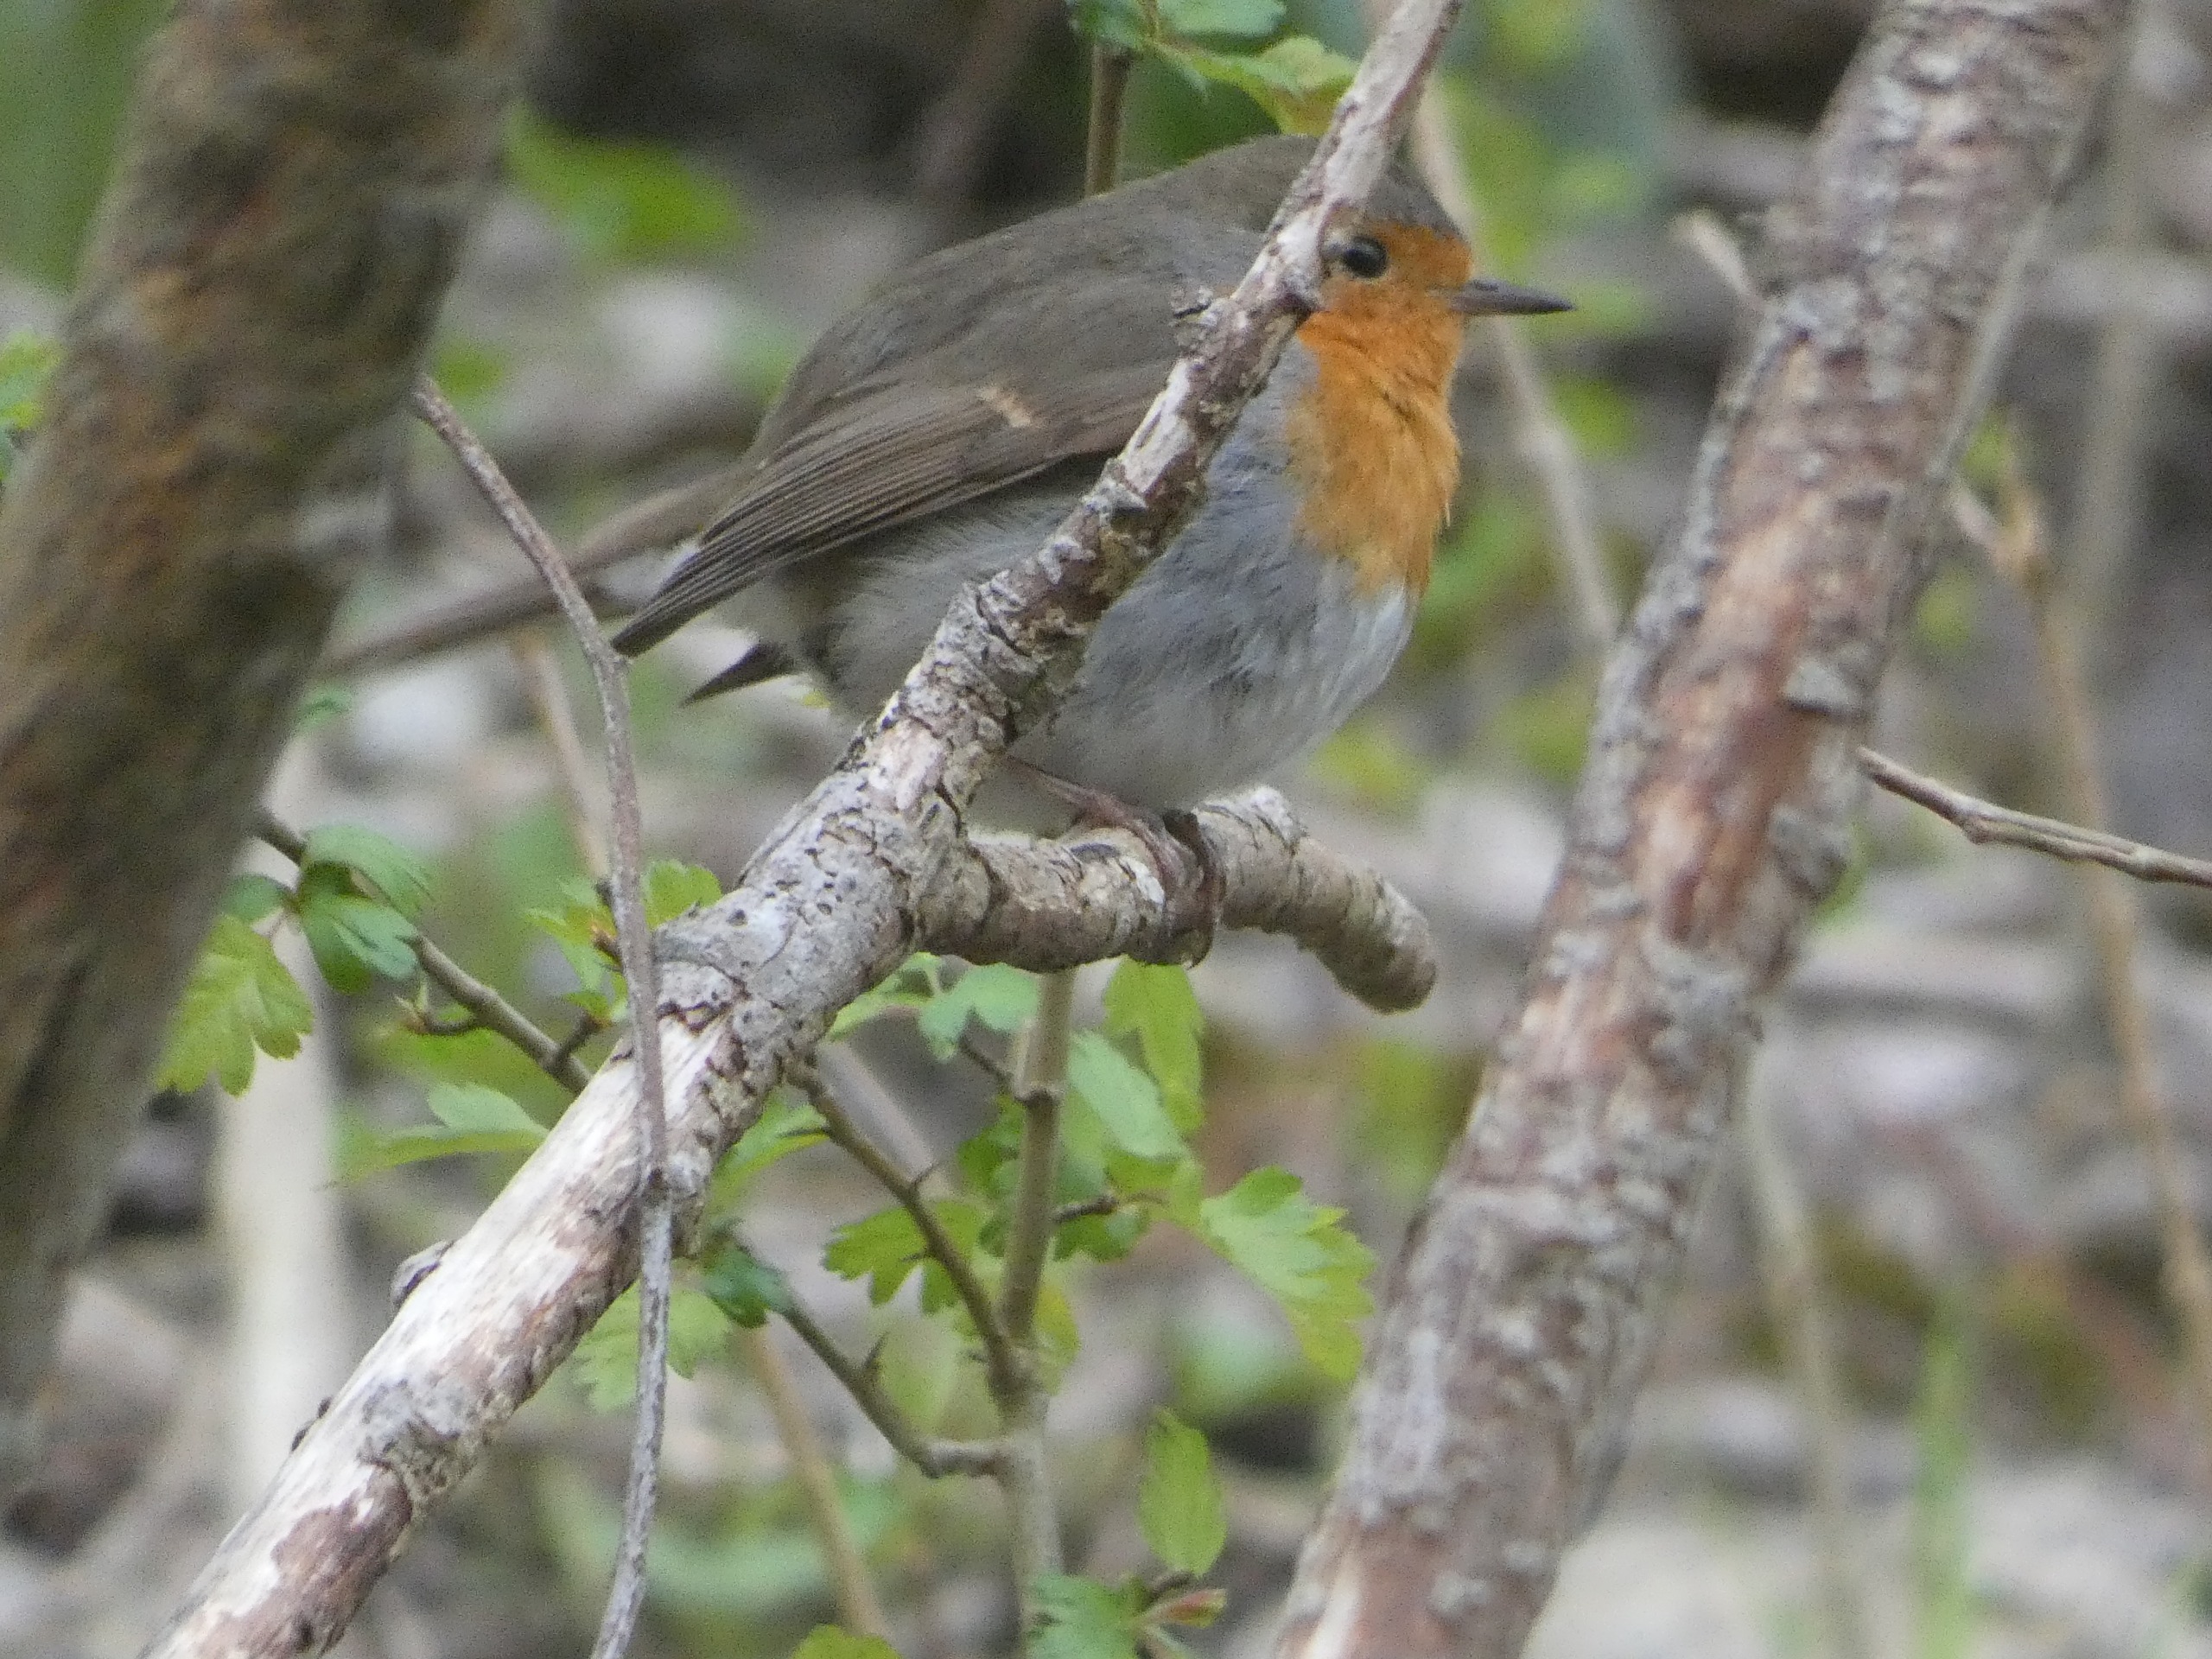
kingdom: Animalia
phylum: Chordata
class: Aves
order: Passeriformes
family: Muscicapidae
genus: Erithacus
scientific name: Erithacus rubecula
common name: Rødhals/rødkælk
